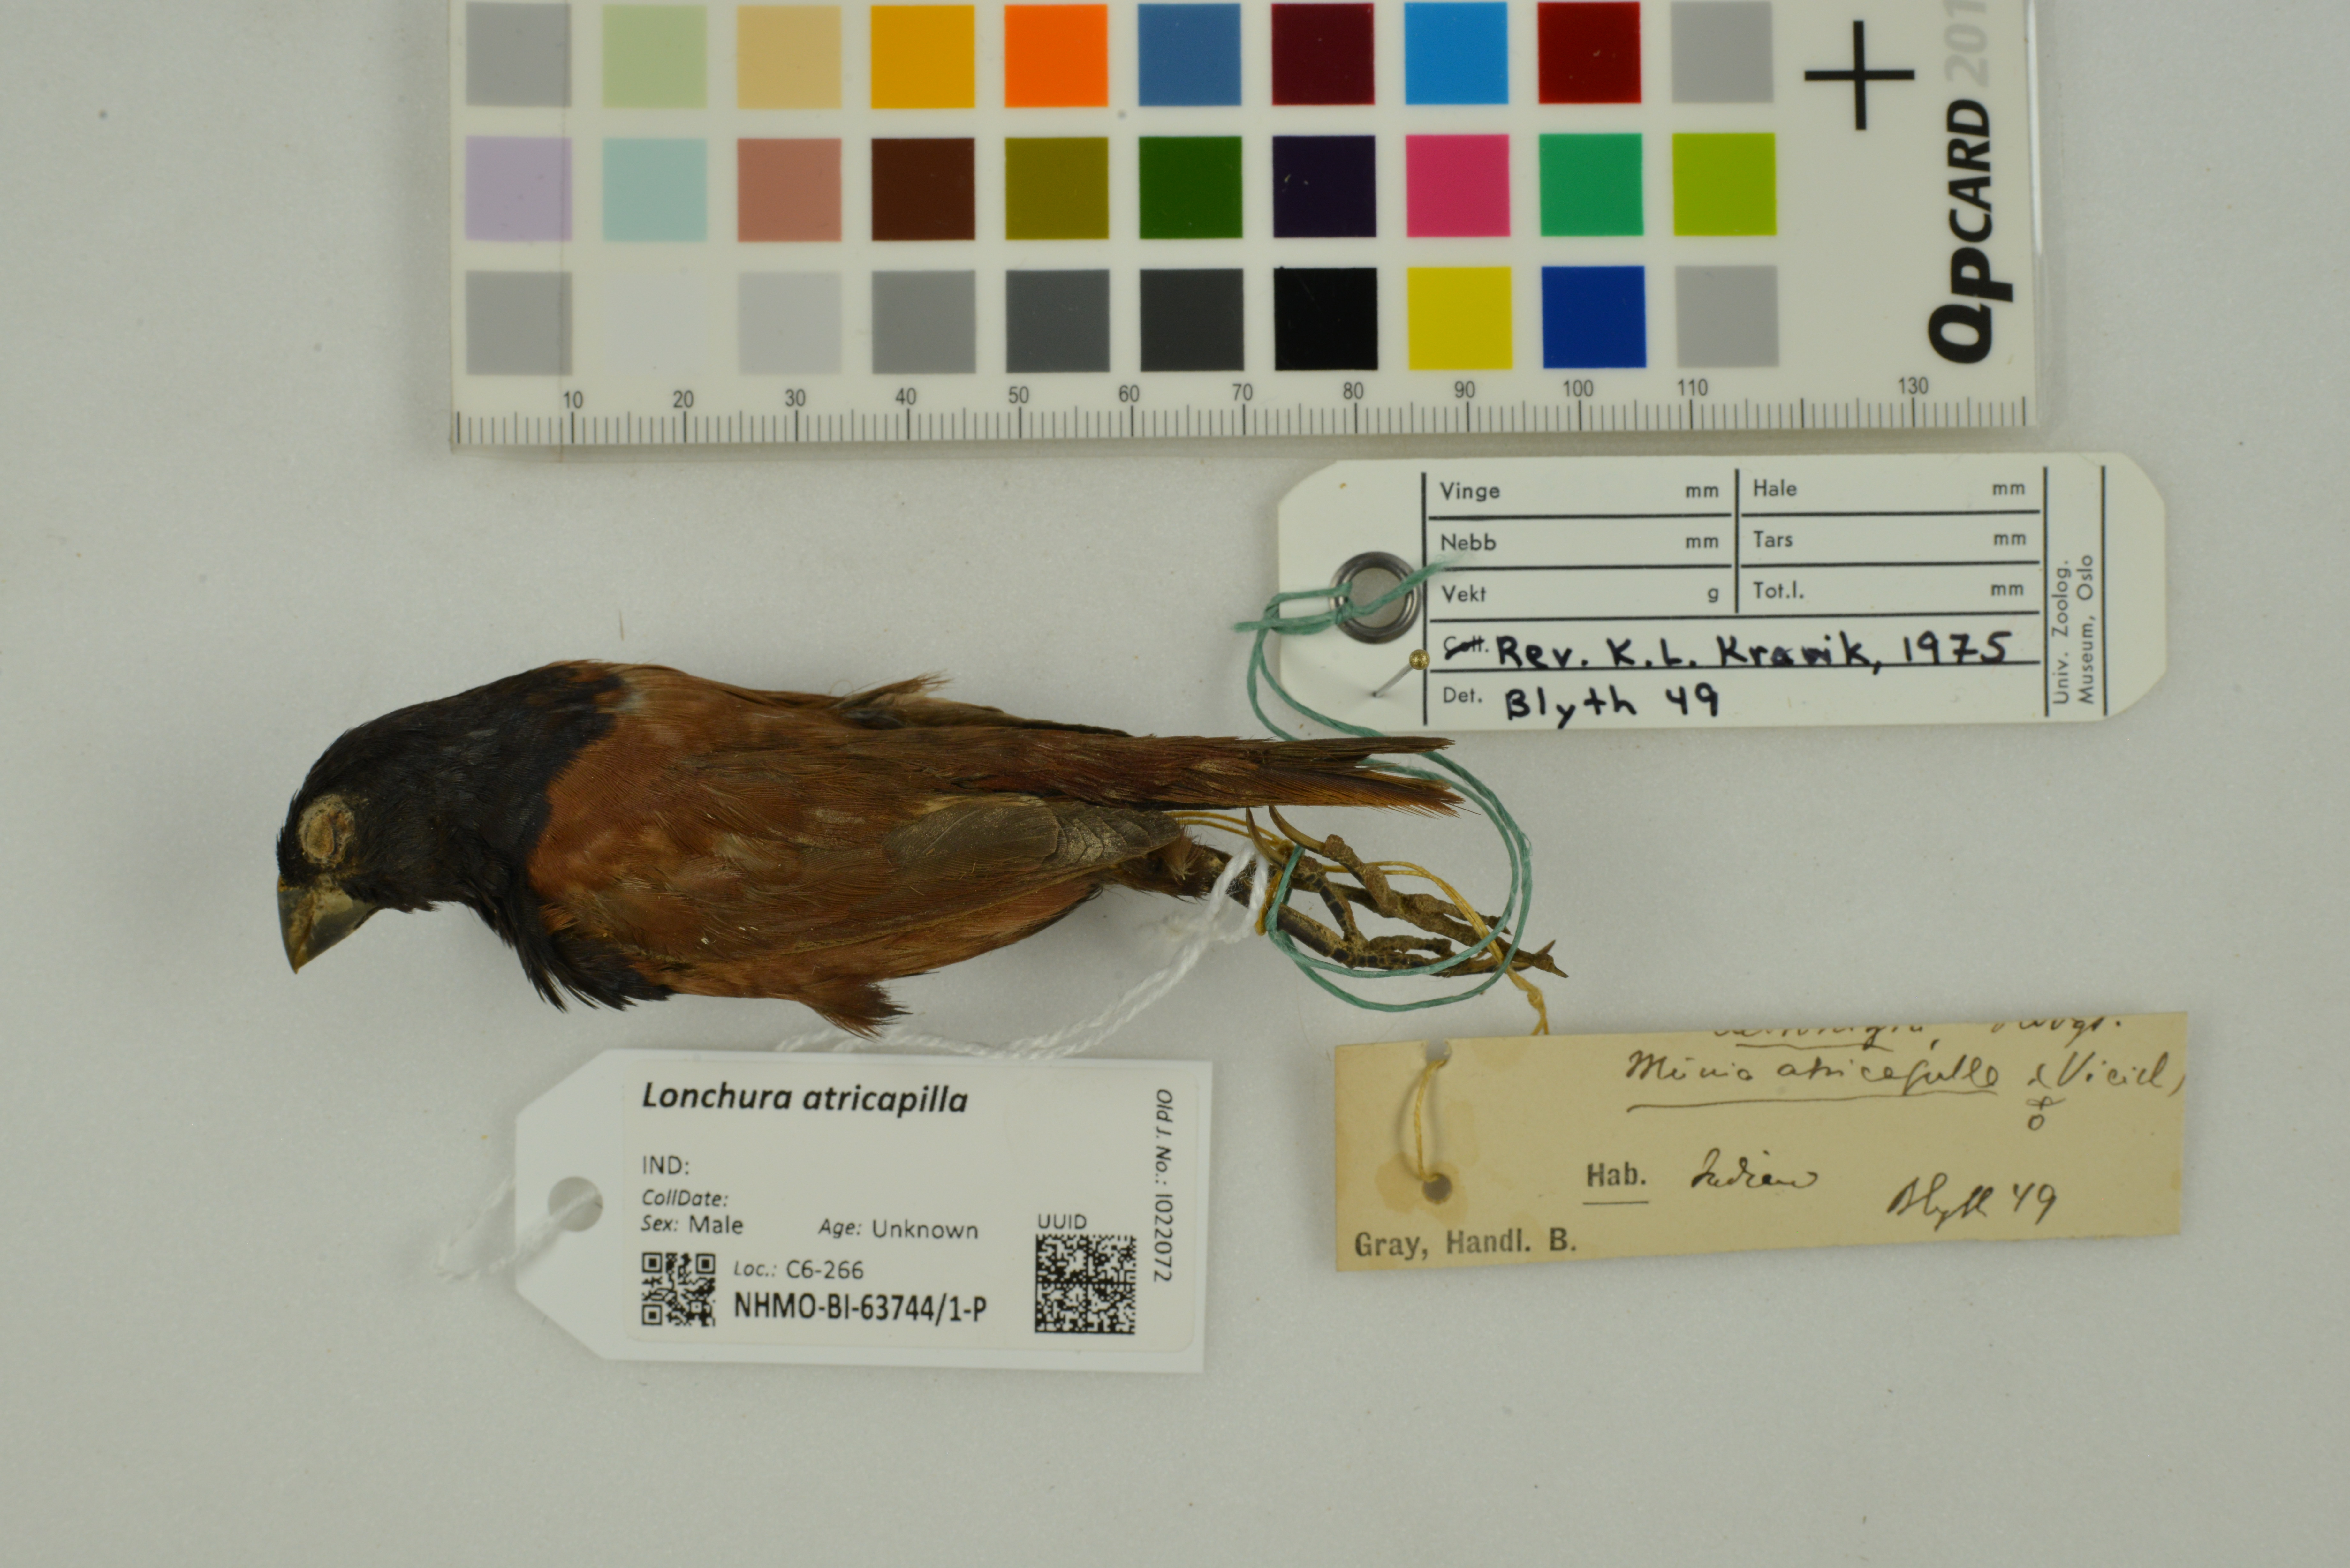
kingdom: Animalia
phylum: Chordata
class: Aves
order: Passeriformes
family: Estrildidae
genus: Lonchura
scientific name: Lonchura atricapilla
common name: Chestnut munia
